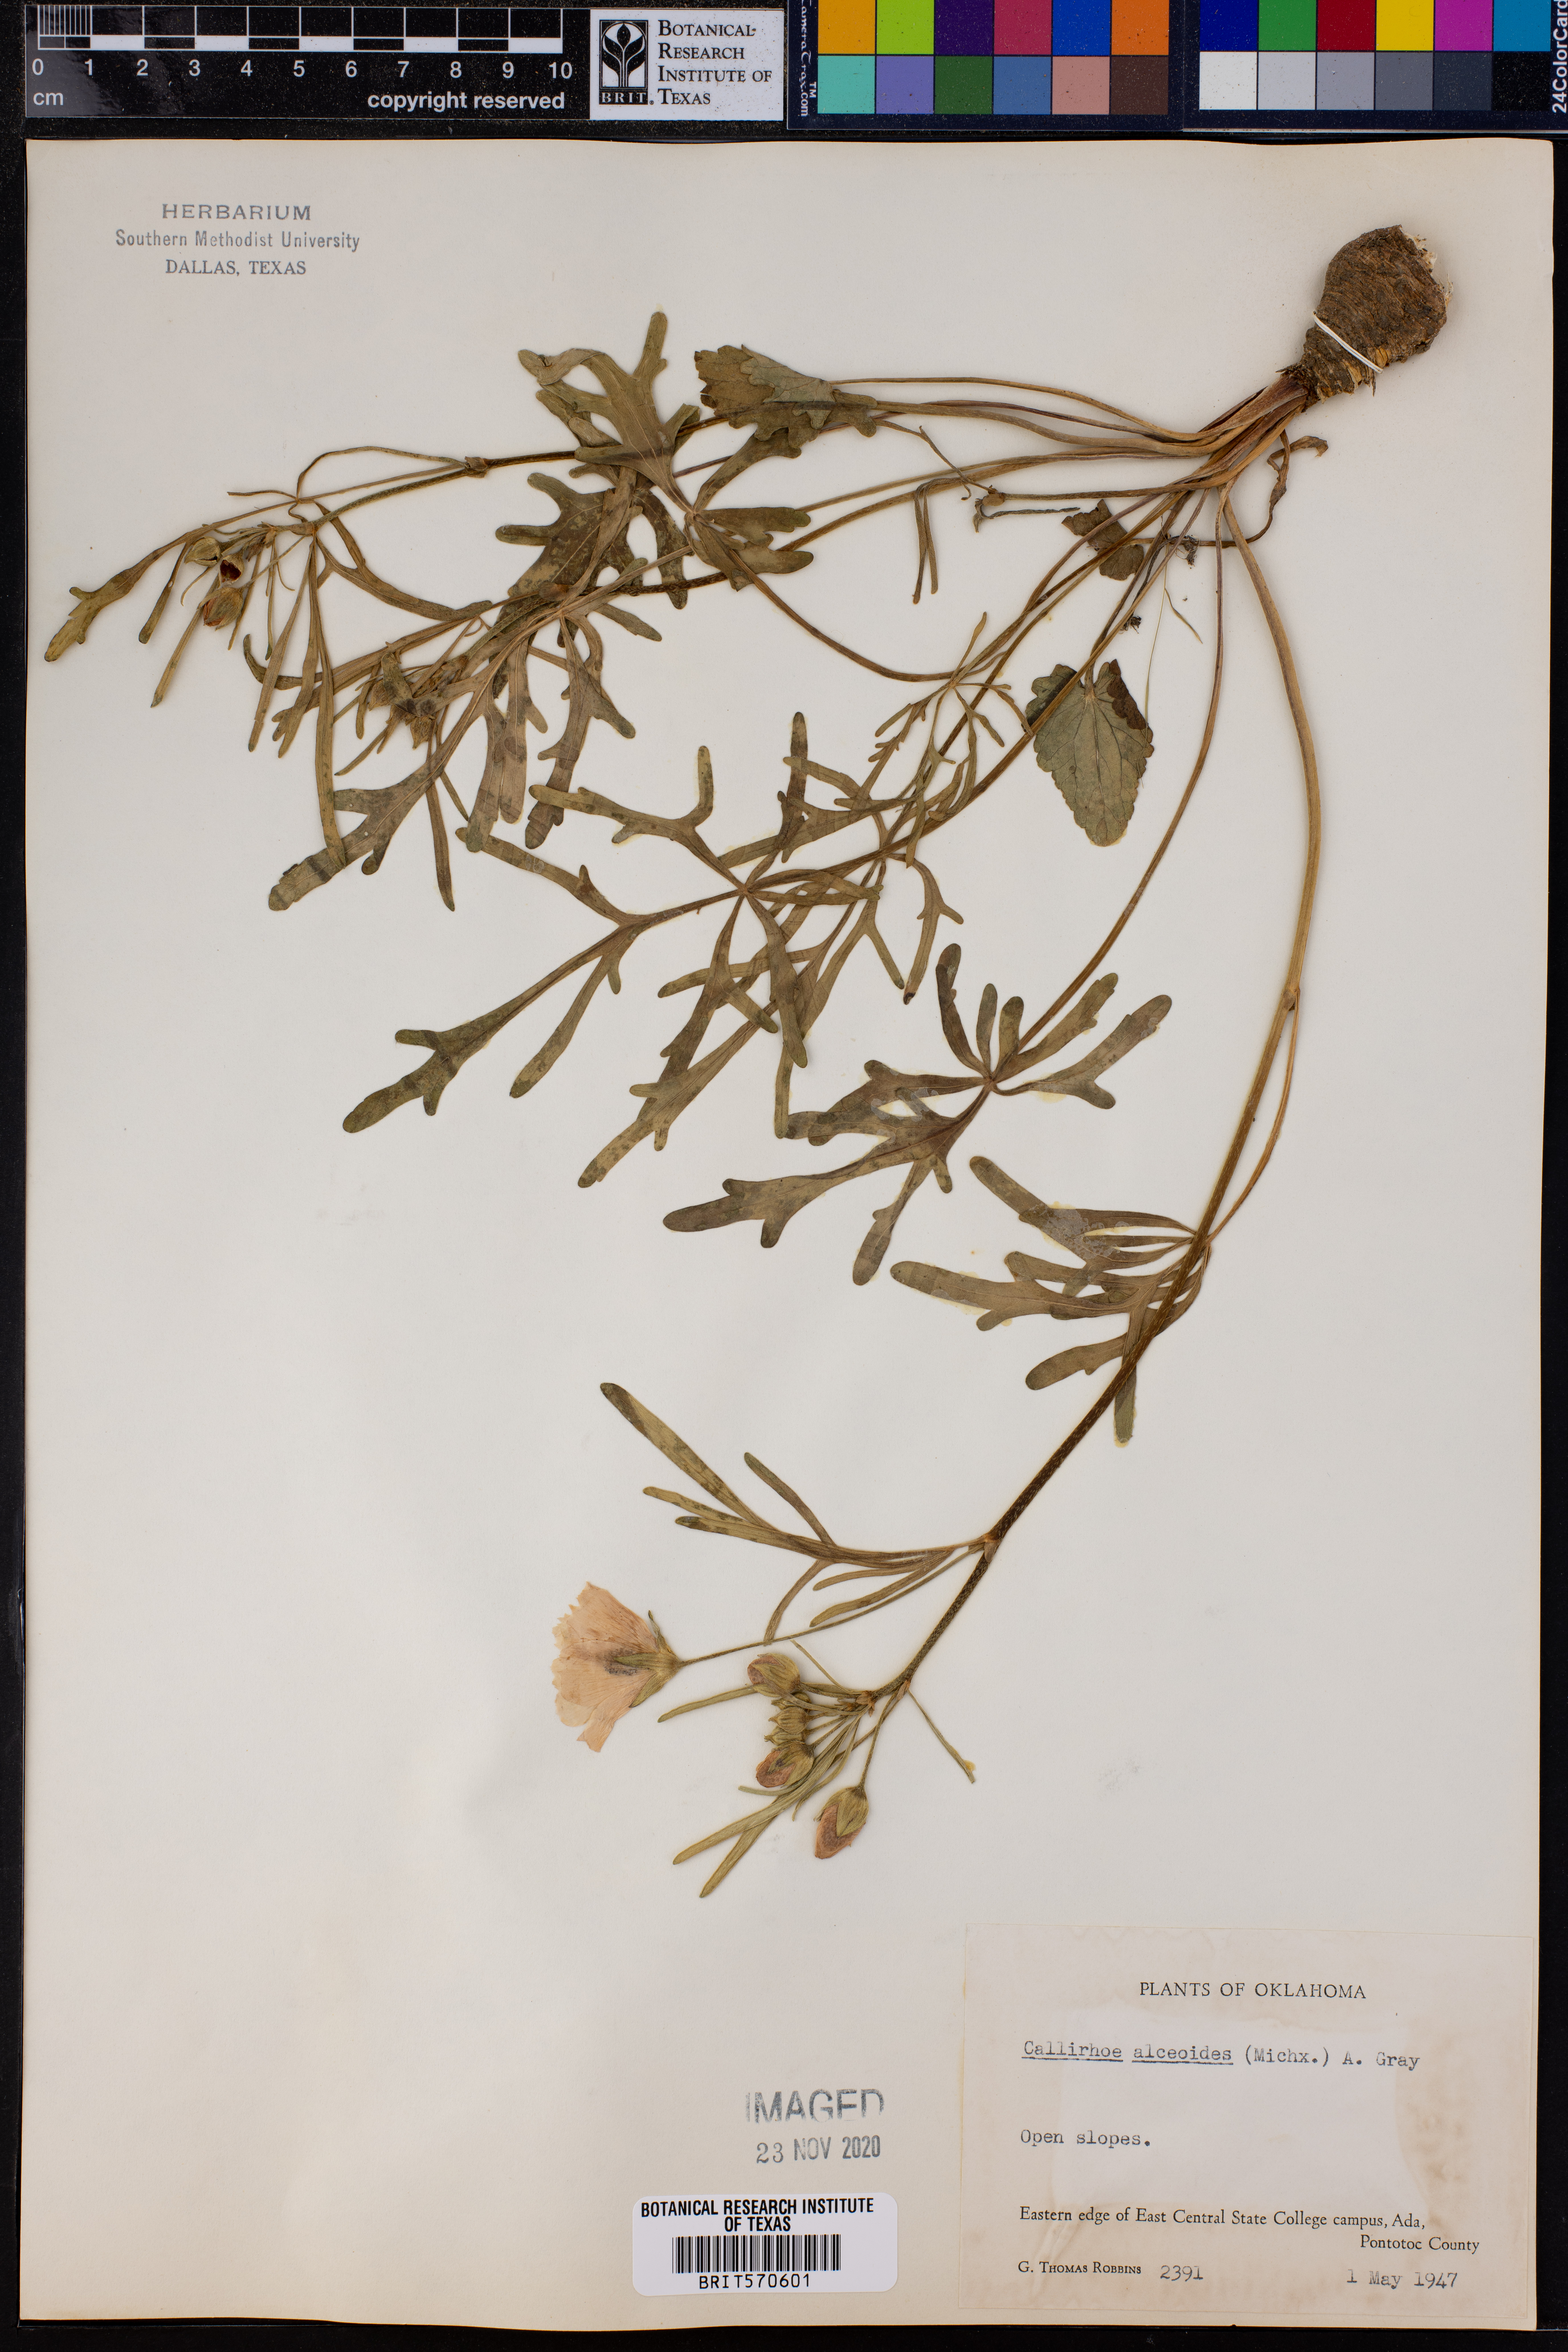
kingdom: Plantae
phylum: Tracheophyta
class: Magnoliopsida
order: Malvales
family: Malvaceae
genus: Callirhoe
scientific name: Callirhoe alcaeoides
